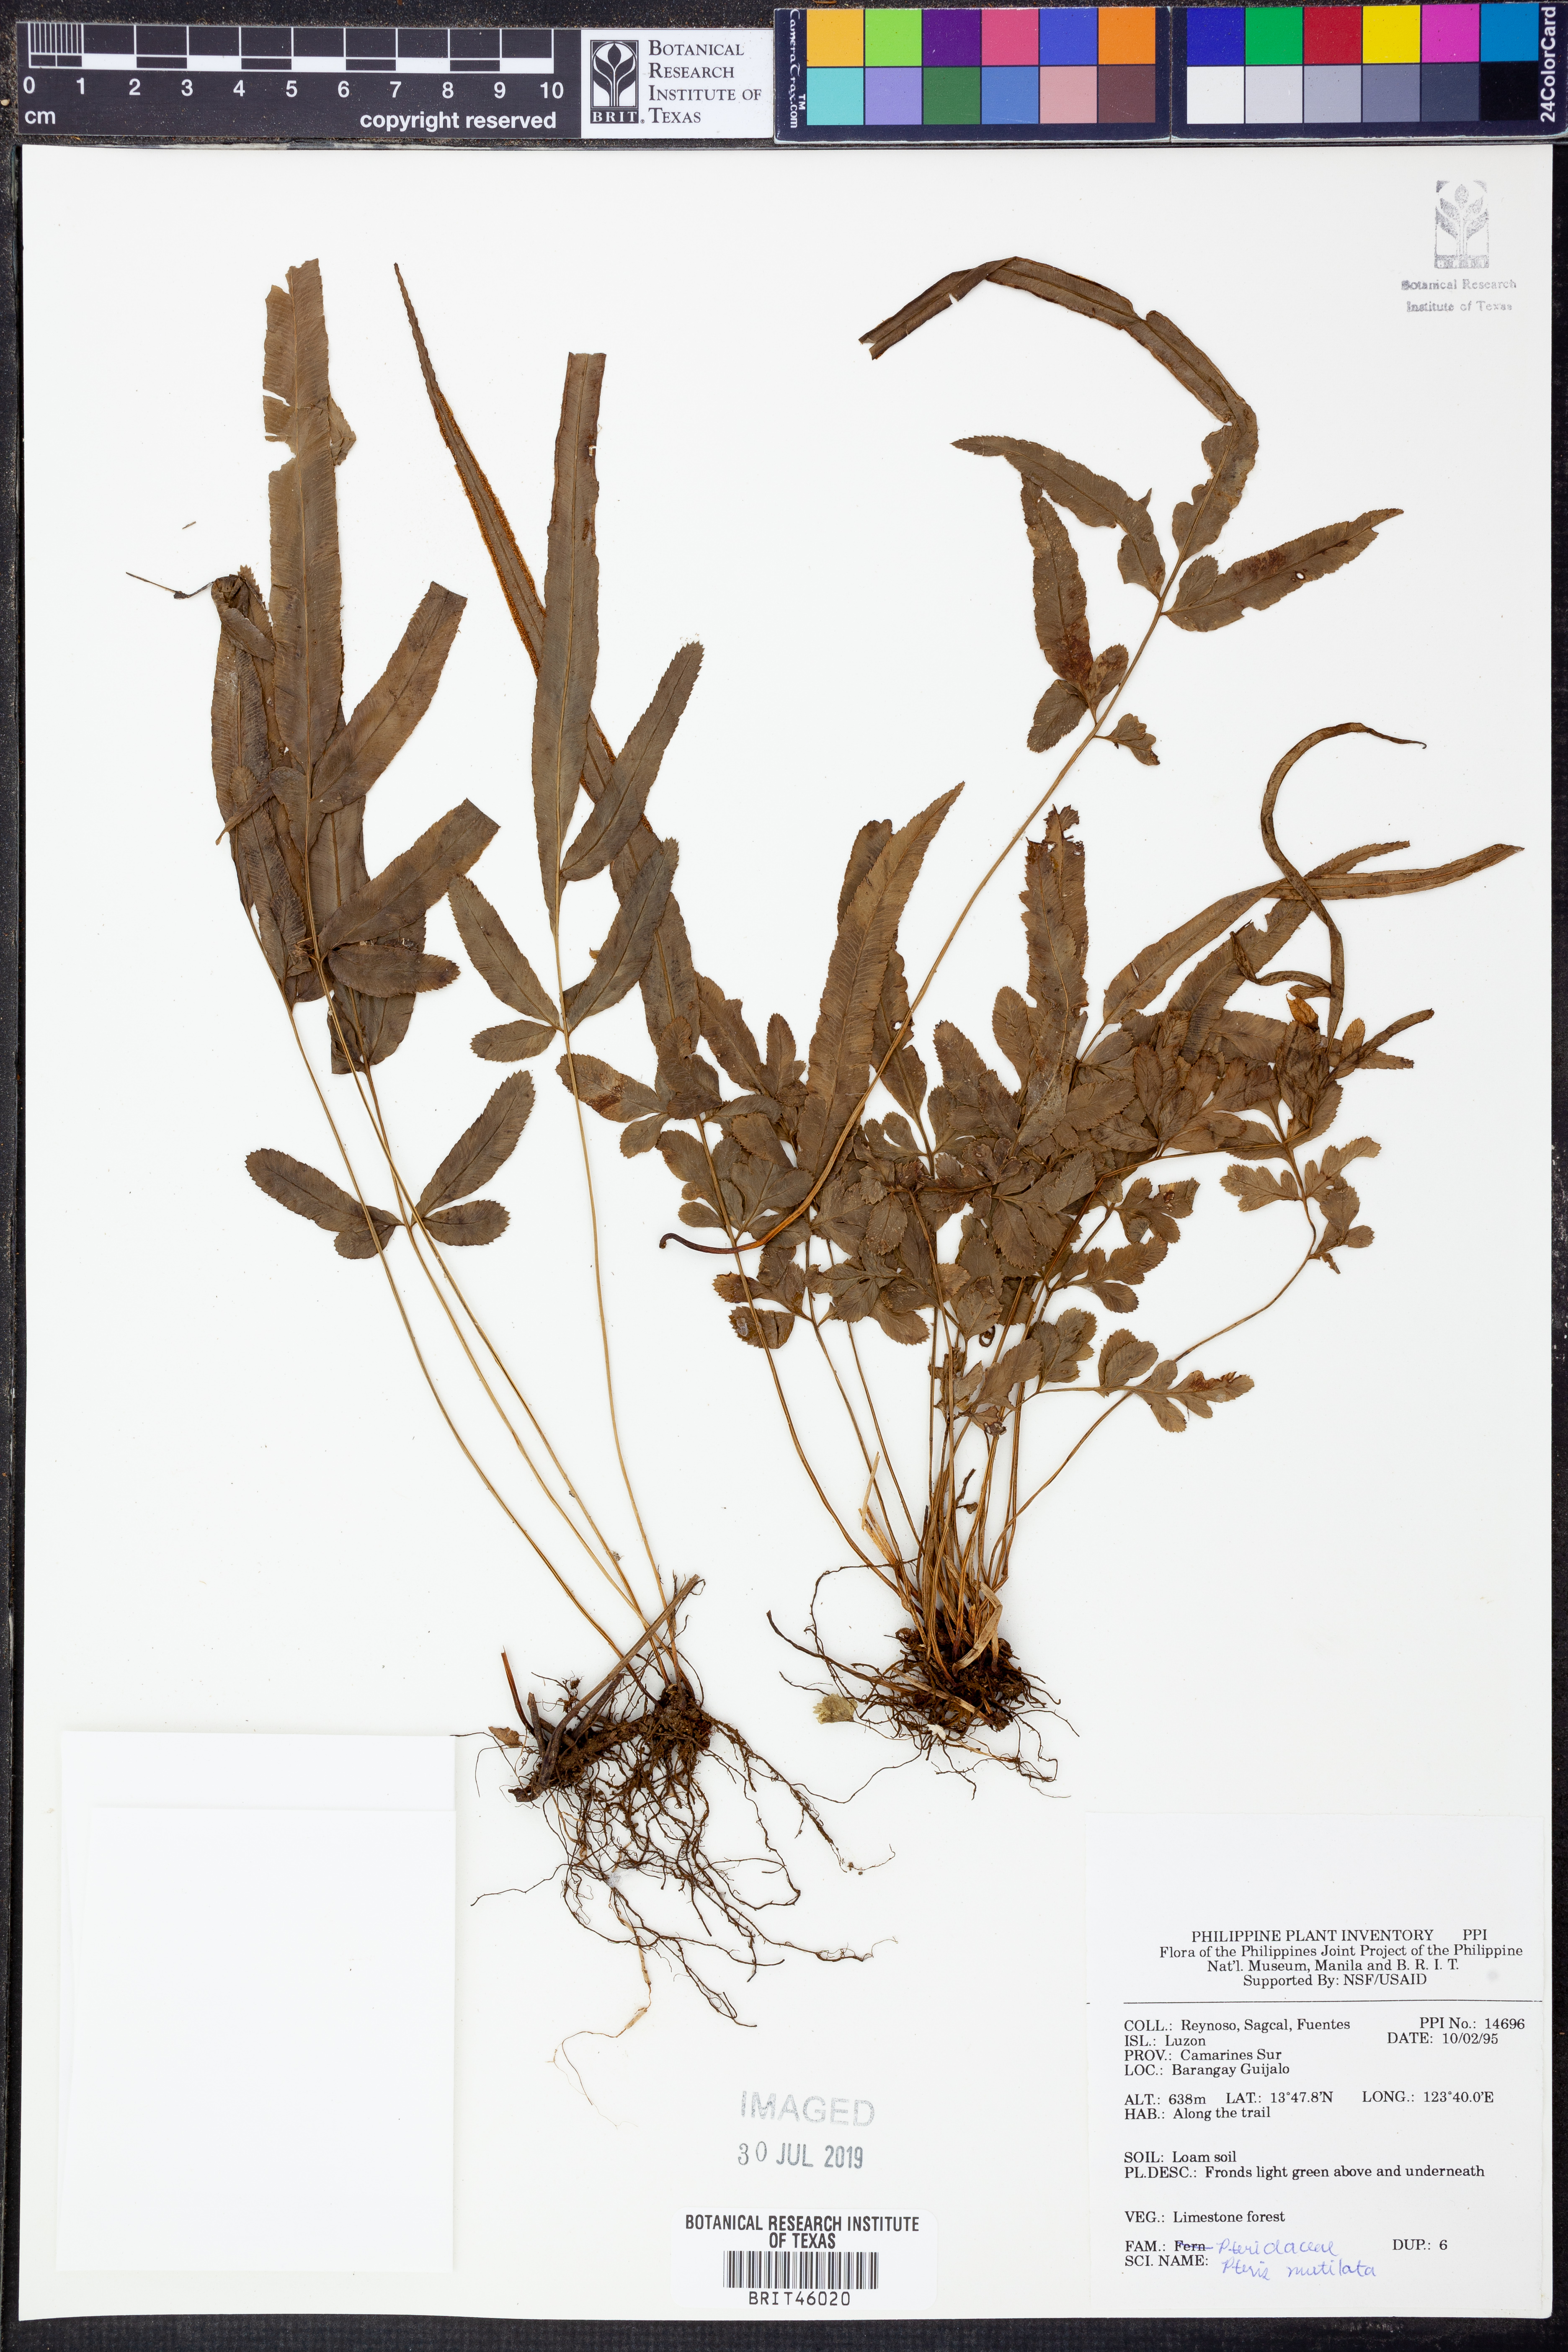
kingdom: Plantae
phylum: Tracheophyta
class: Polypodiopsida
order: Polypodiales
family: Pteridaceae
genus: Pteris
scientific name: Pteris mutilata
